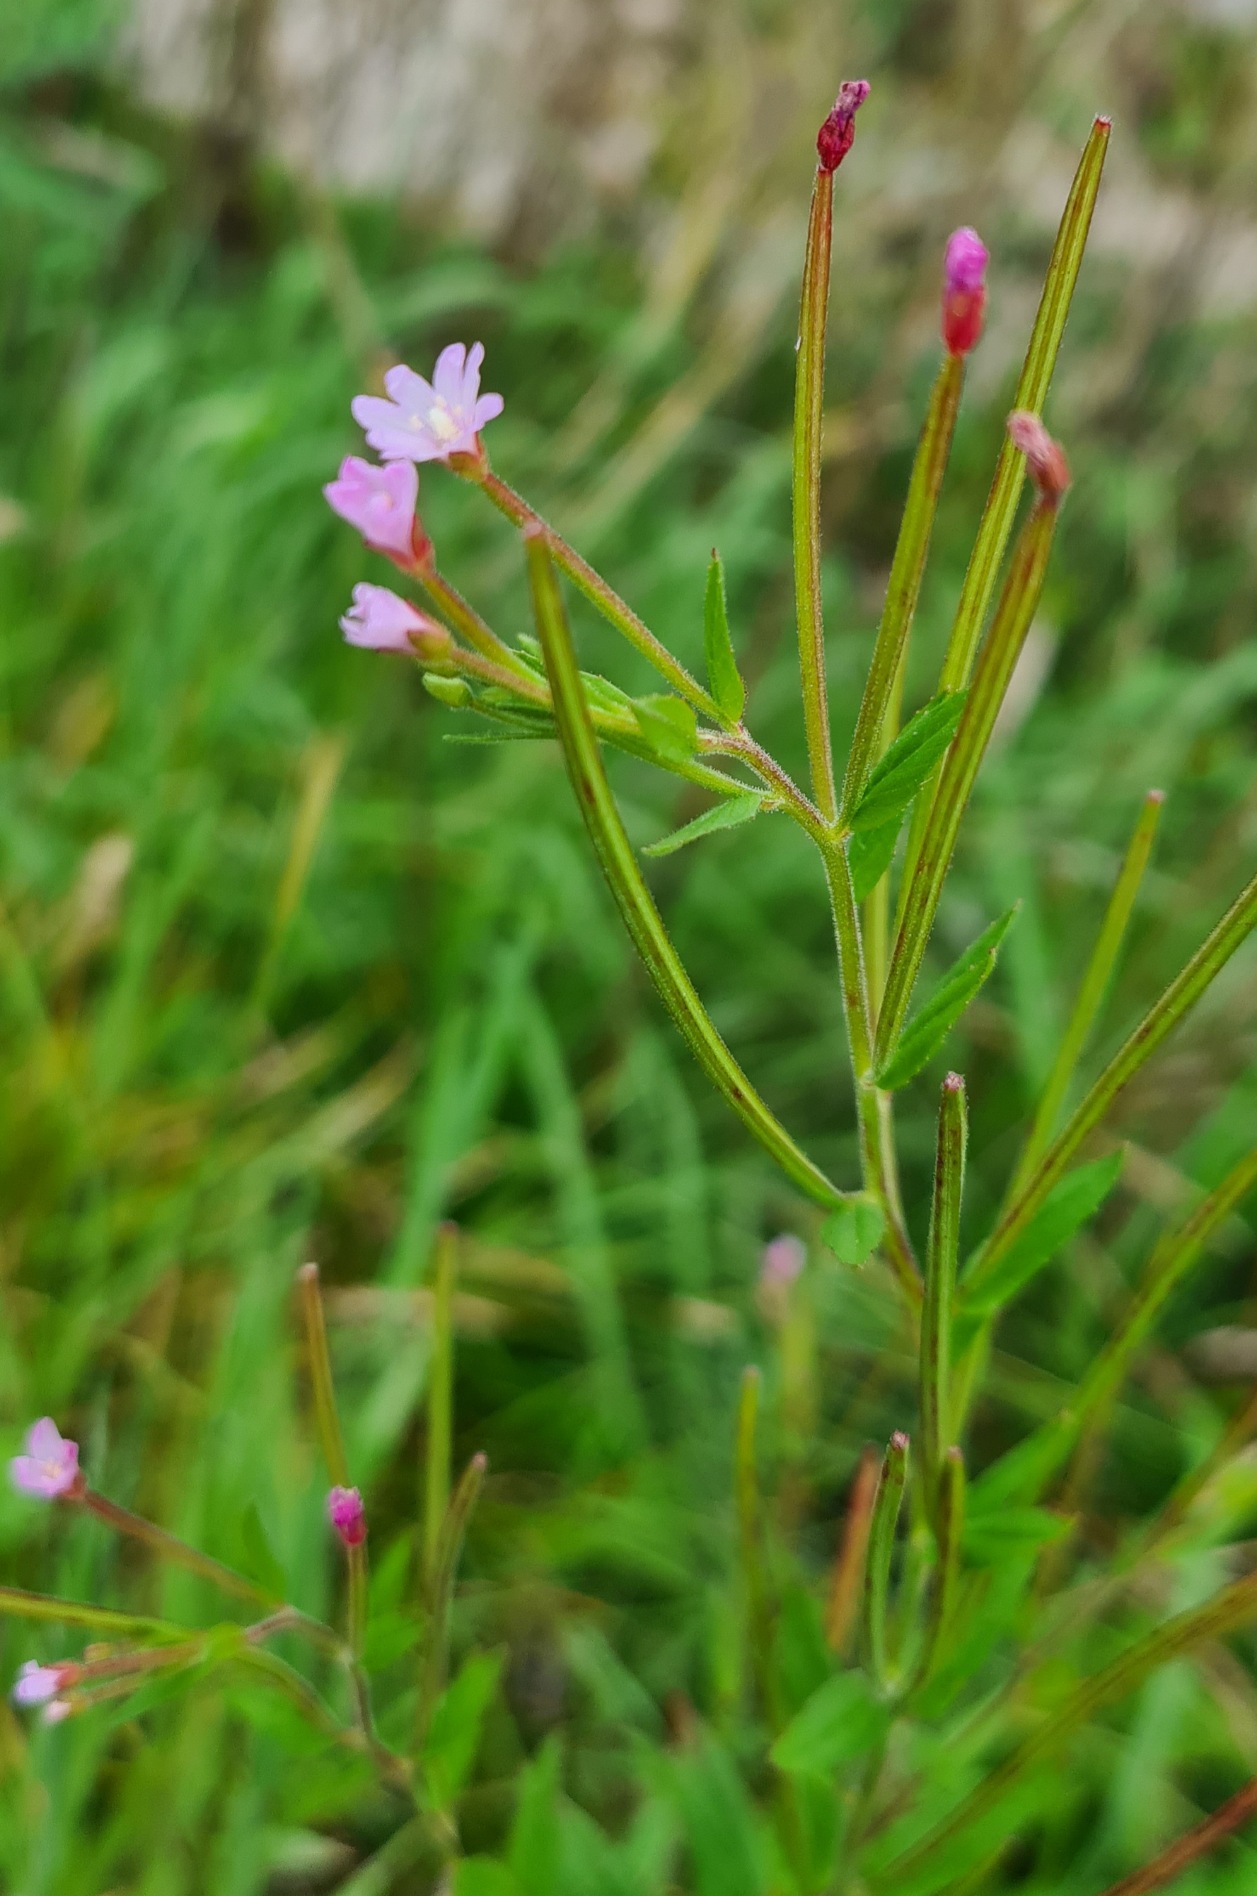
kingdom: Plantae
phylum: Tracheophyta
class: Magnoliopsida
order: Myrtales
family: Onagraceae
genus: Epilobium
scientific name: Epilobium ciliatum
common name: Kirtlet dueurt
